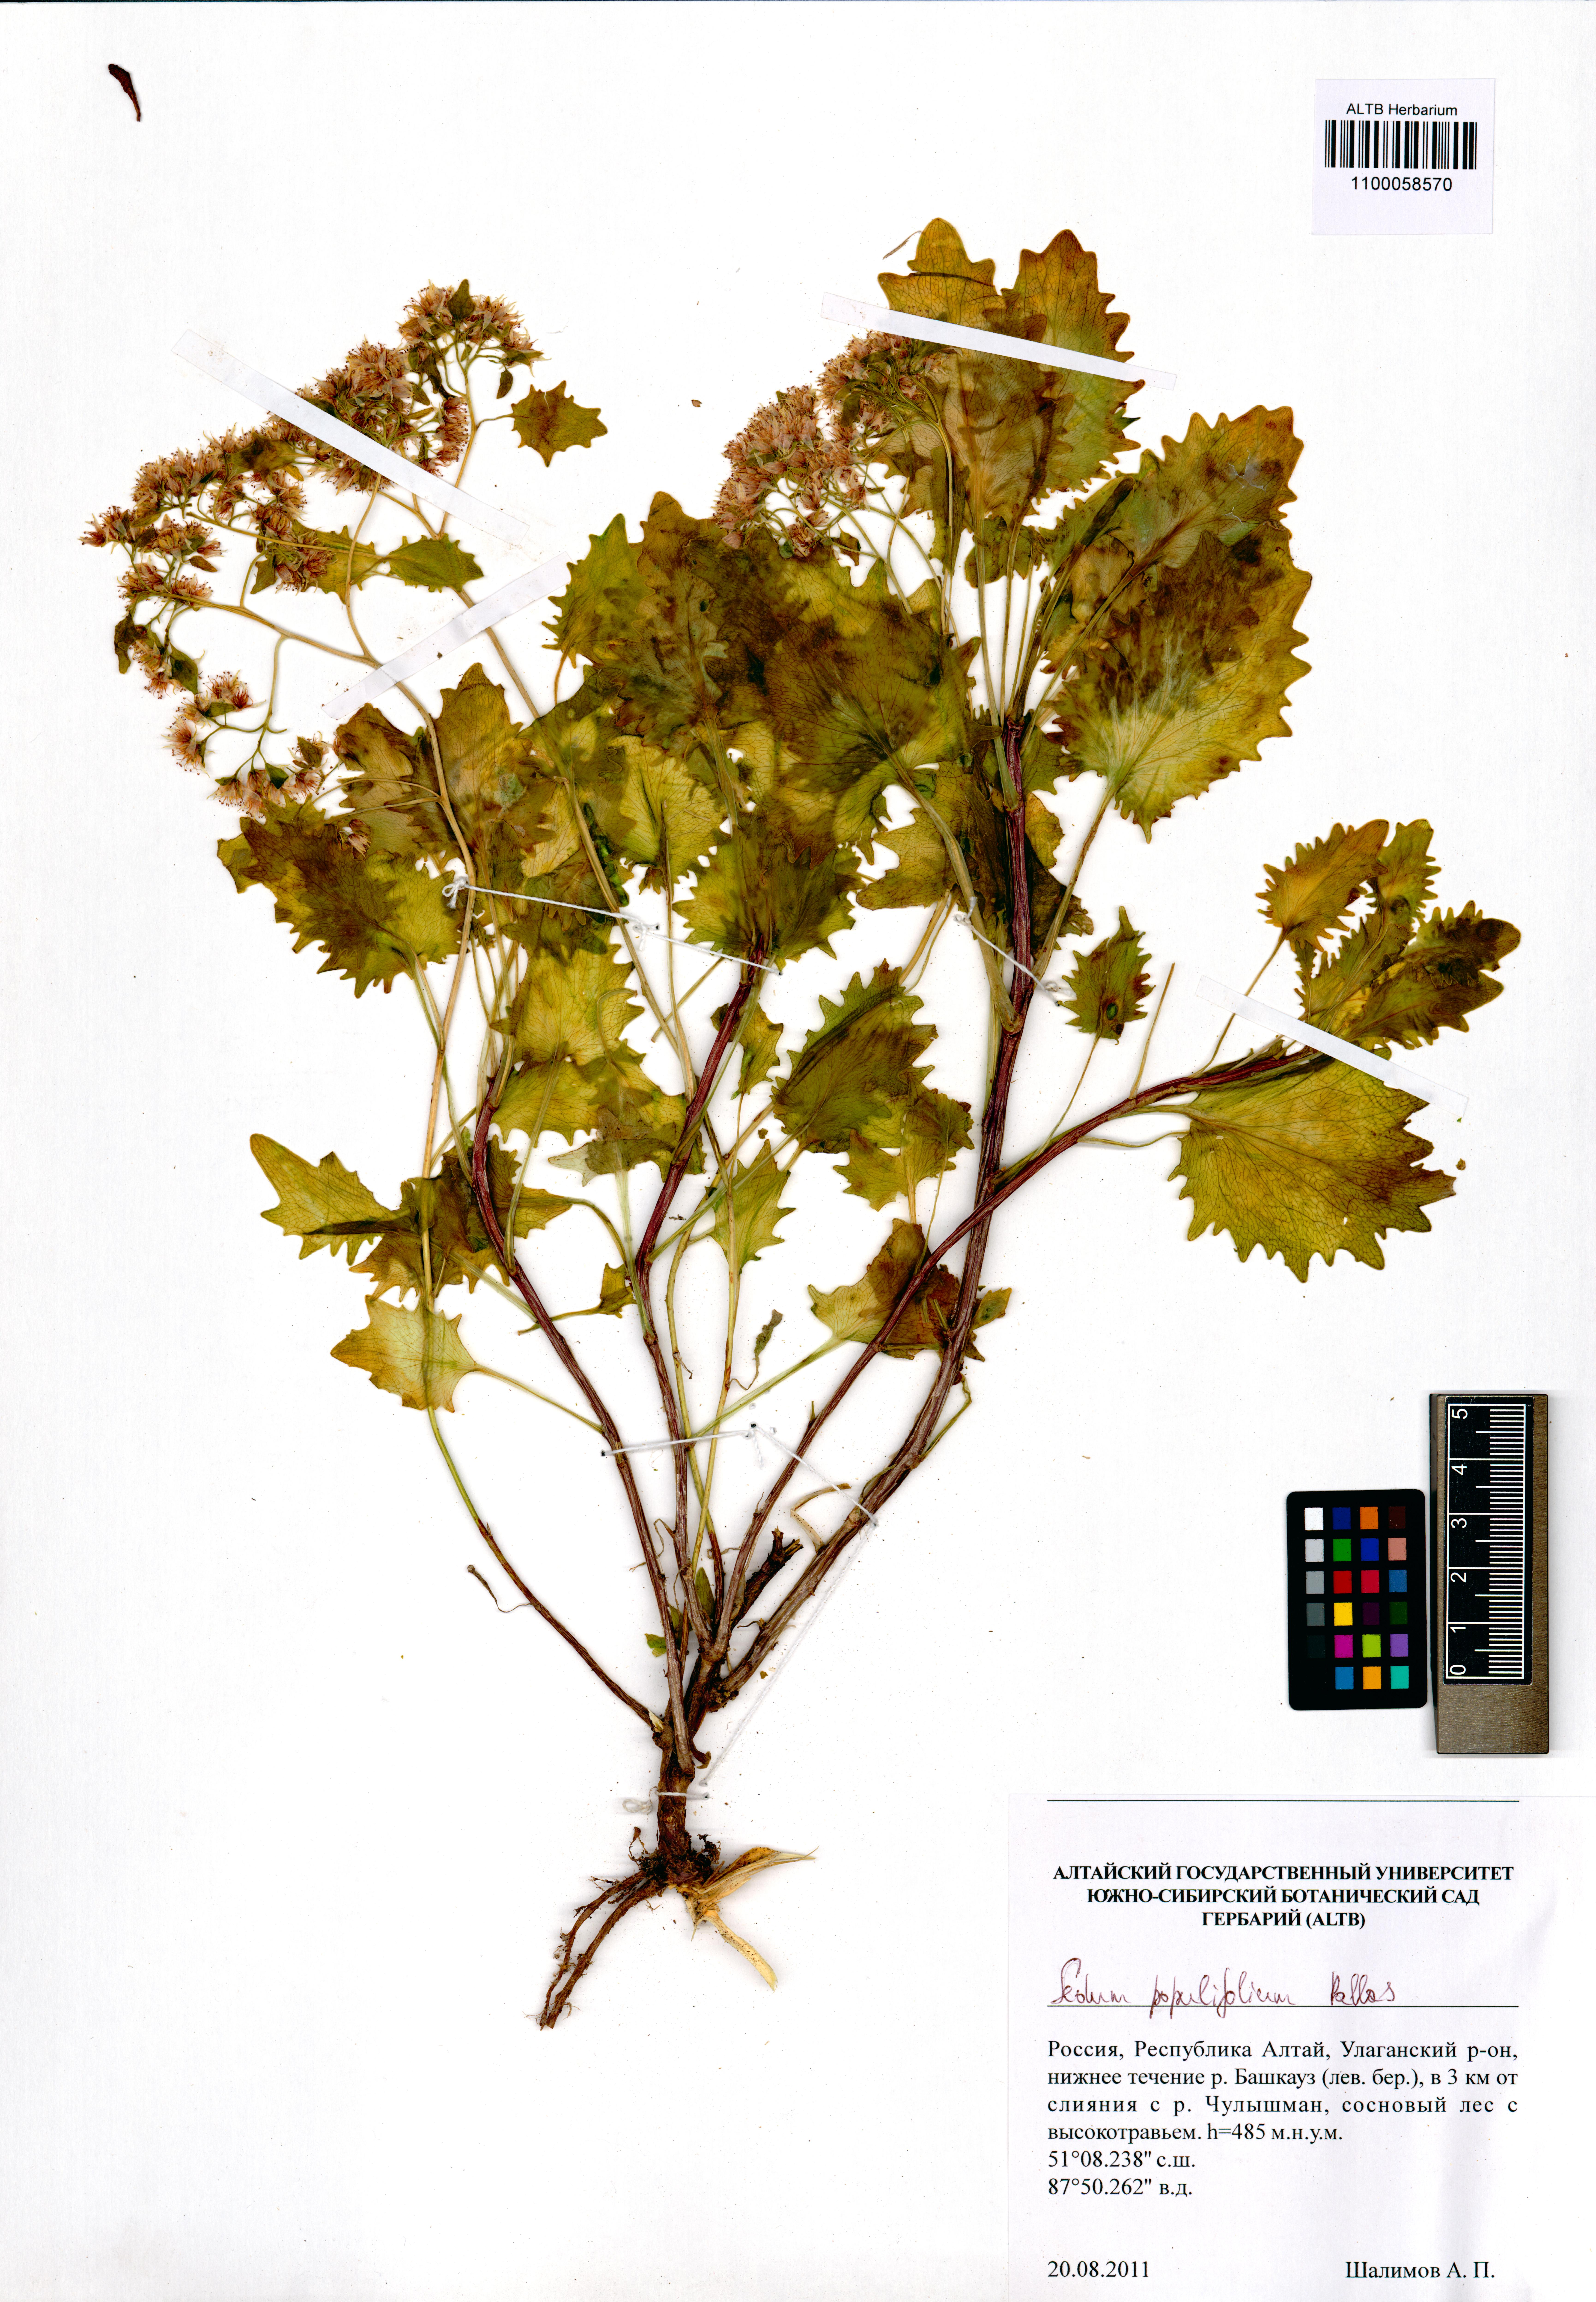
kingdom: Plantae
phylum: Tracheophyta
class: Magnoliopsida
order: Saxifragales
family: Crassulaceae
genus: Hylotelephium
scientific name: Hylotelephium populifolium
